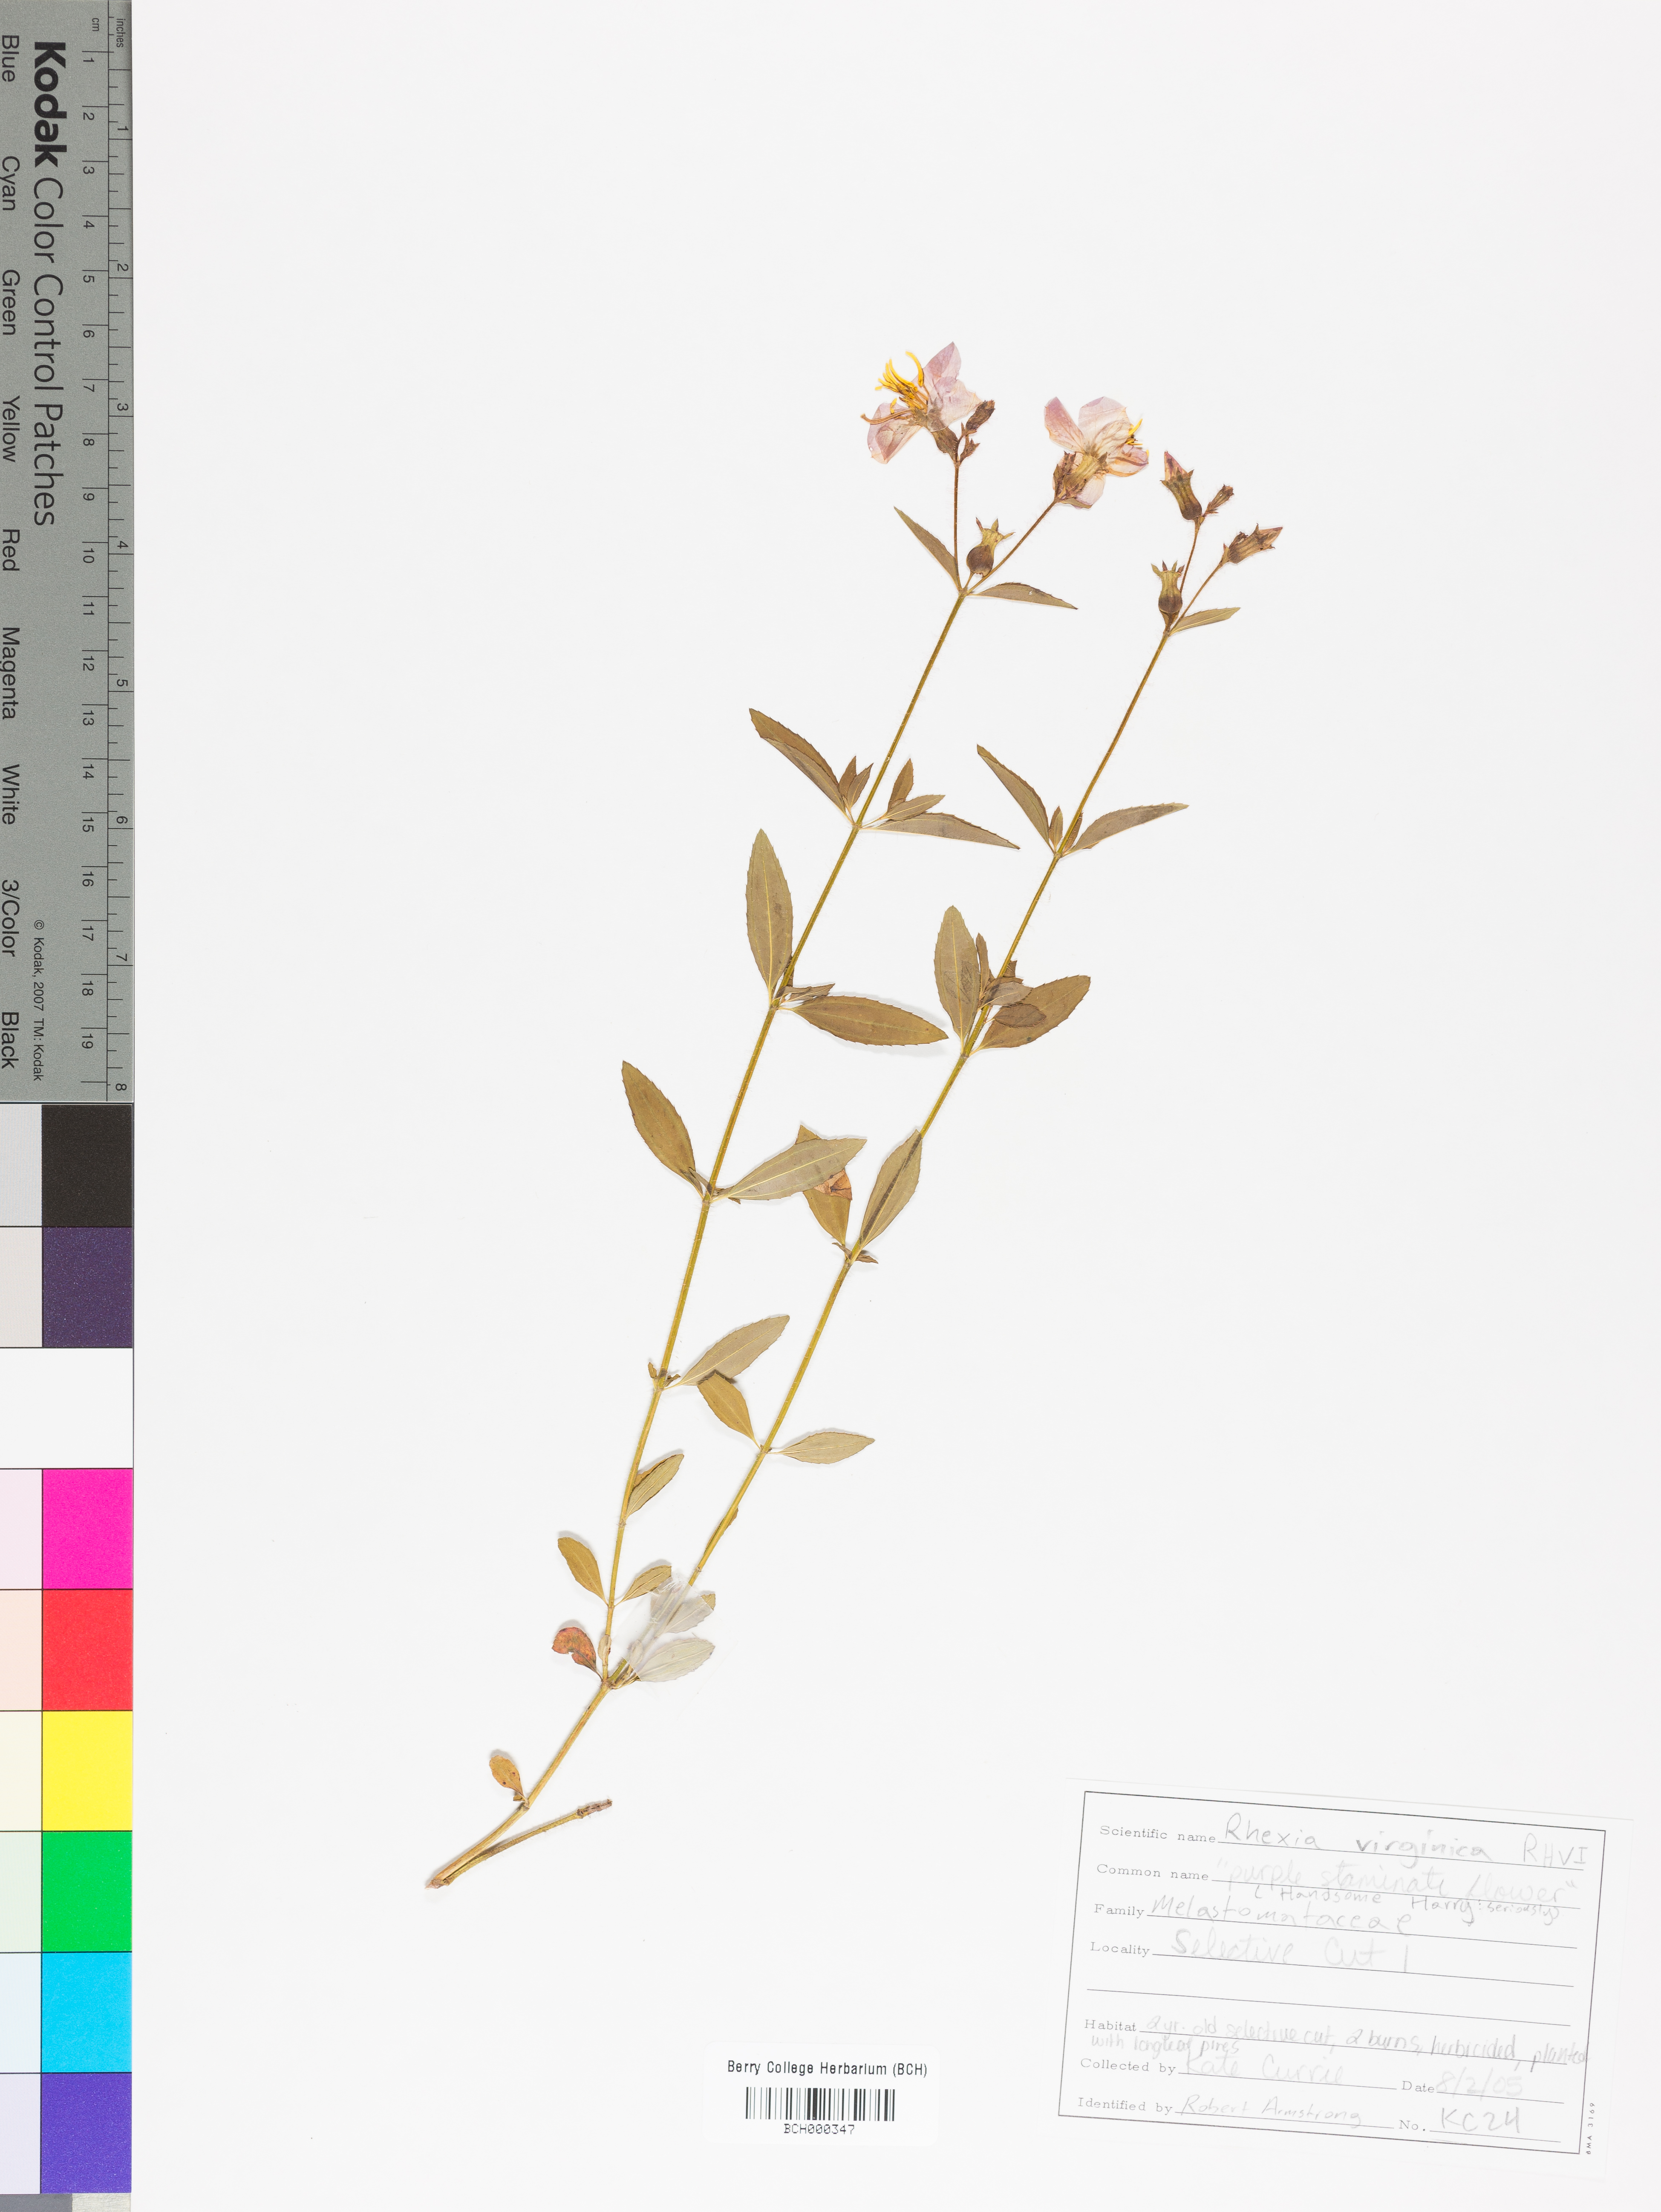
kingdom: Plantae
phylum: Tracheophyta
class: Magnoliopsida
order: Myrtales
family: Melastomataceae
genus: Rhexia
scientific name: Rhexia virginica
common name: Common meadow beauty
